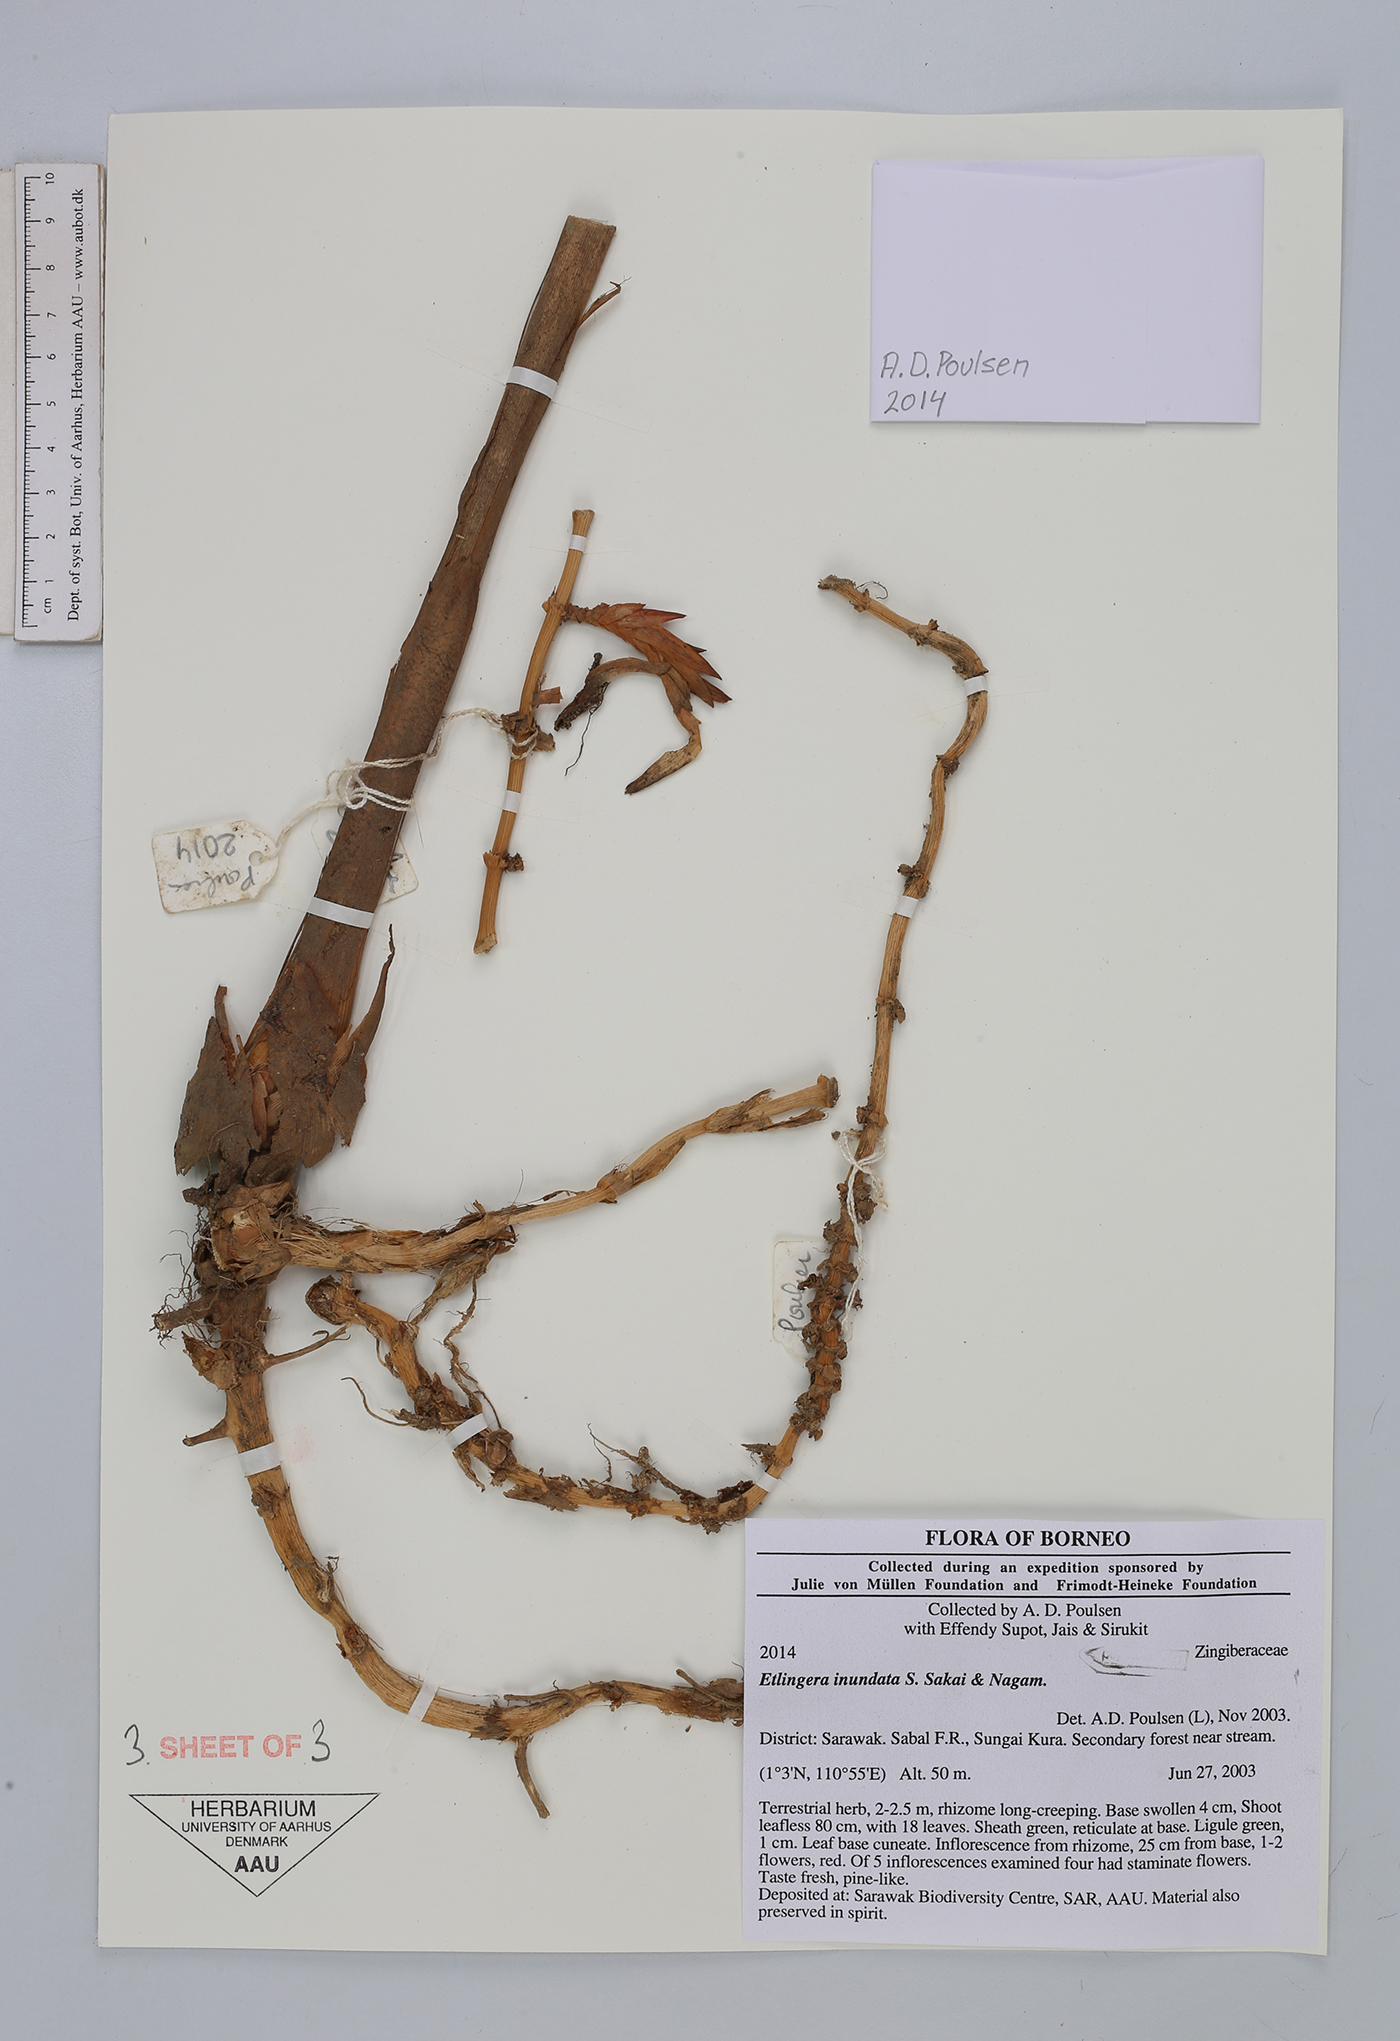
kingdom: Plantae
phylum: Tracheophyta
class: Liliopsida
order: Zingiberales
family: Zingiberaceae
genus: Etlingera
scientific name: Etlingera inundata
